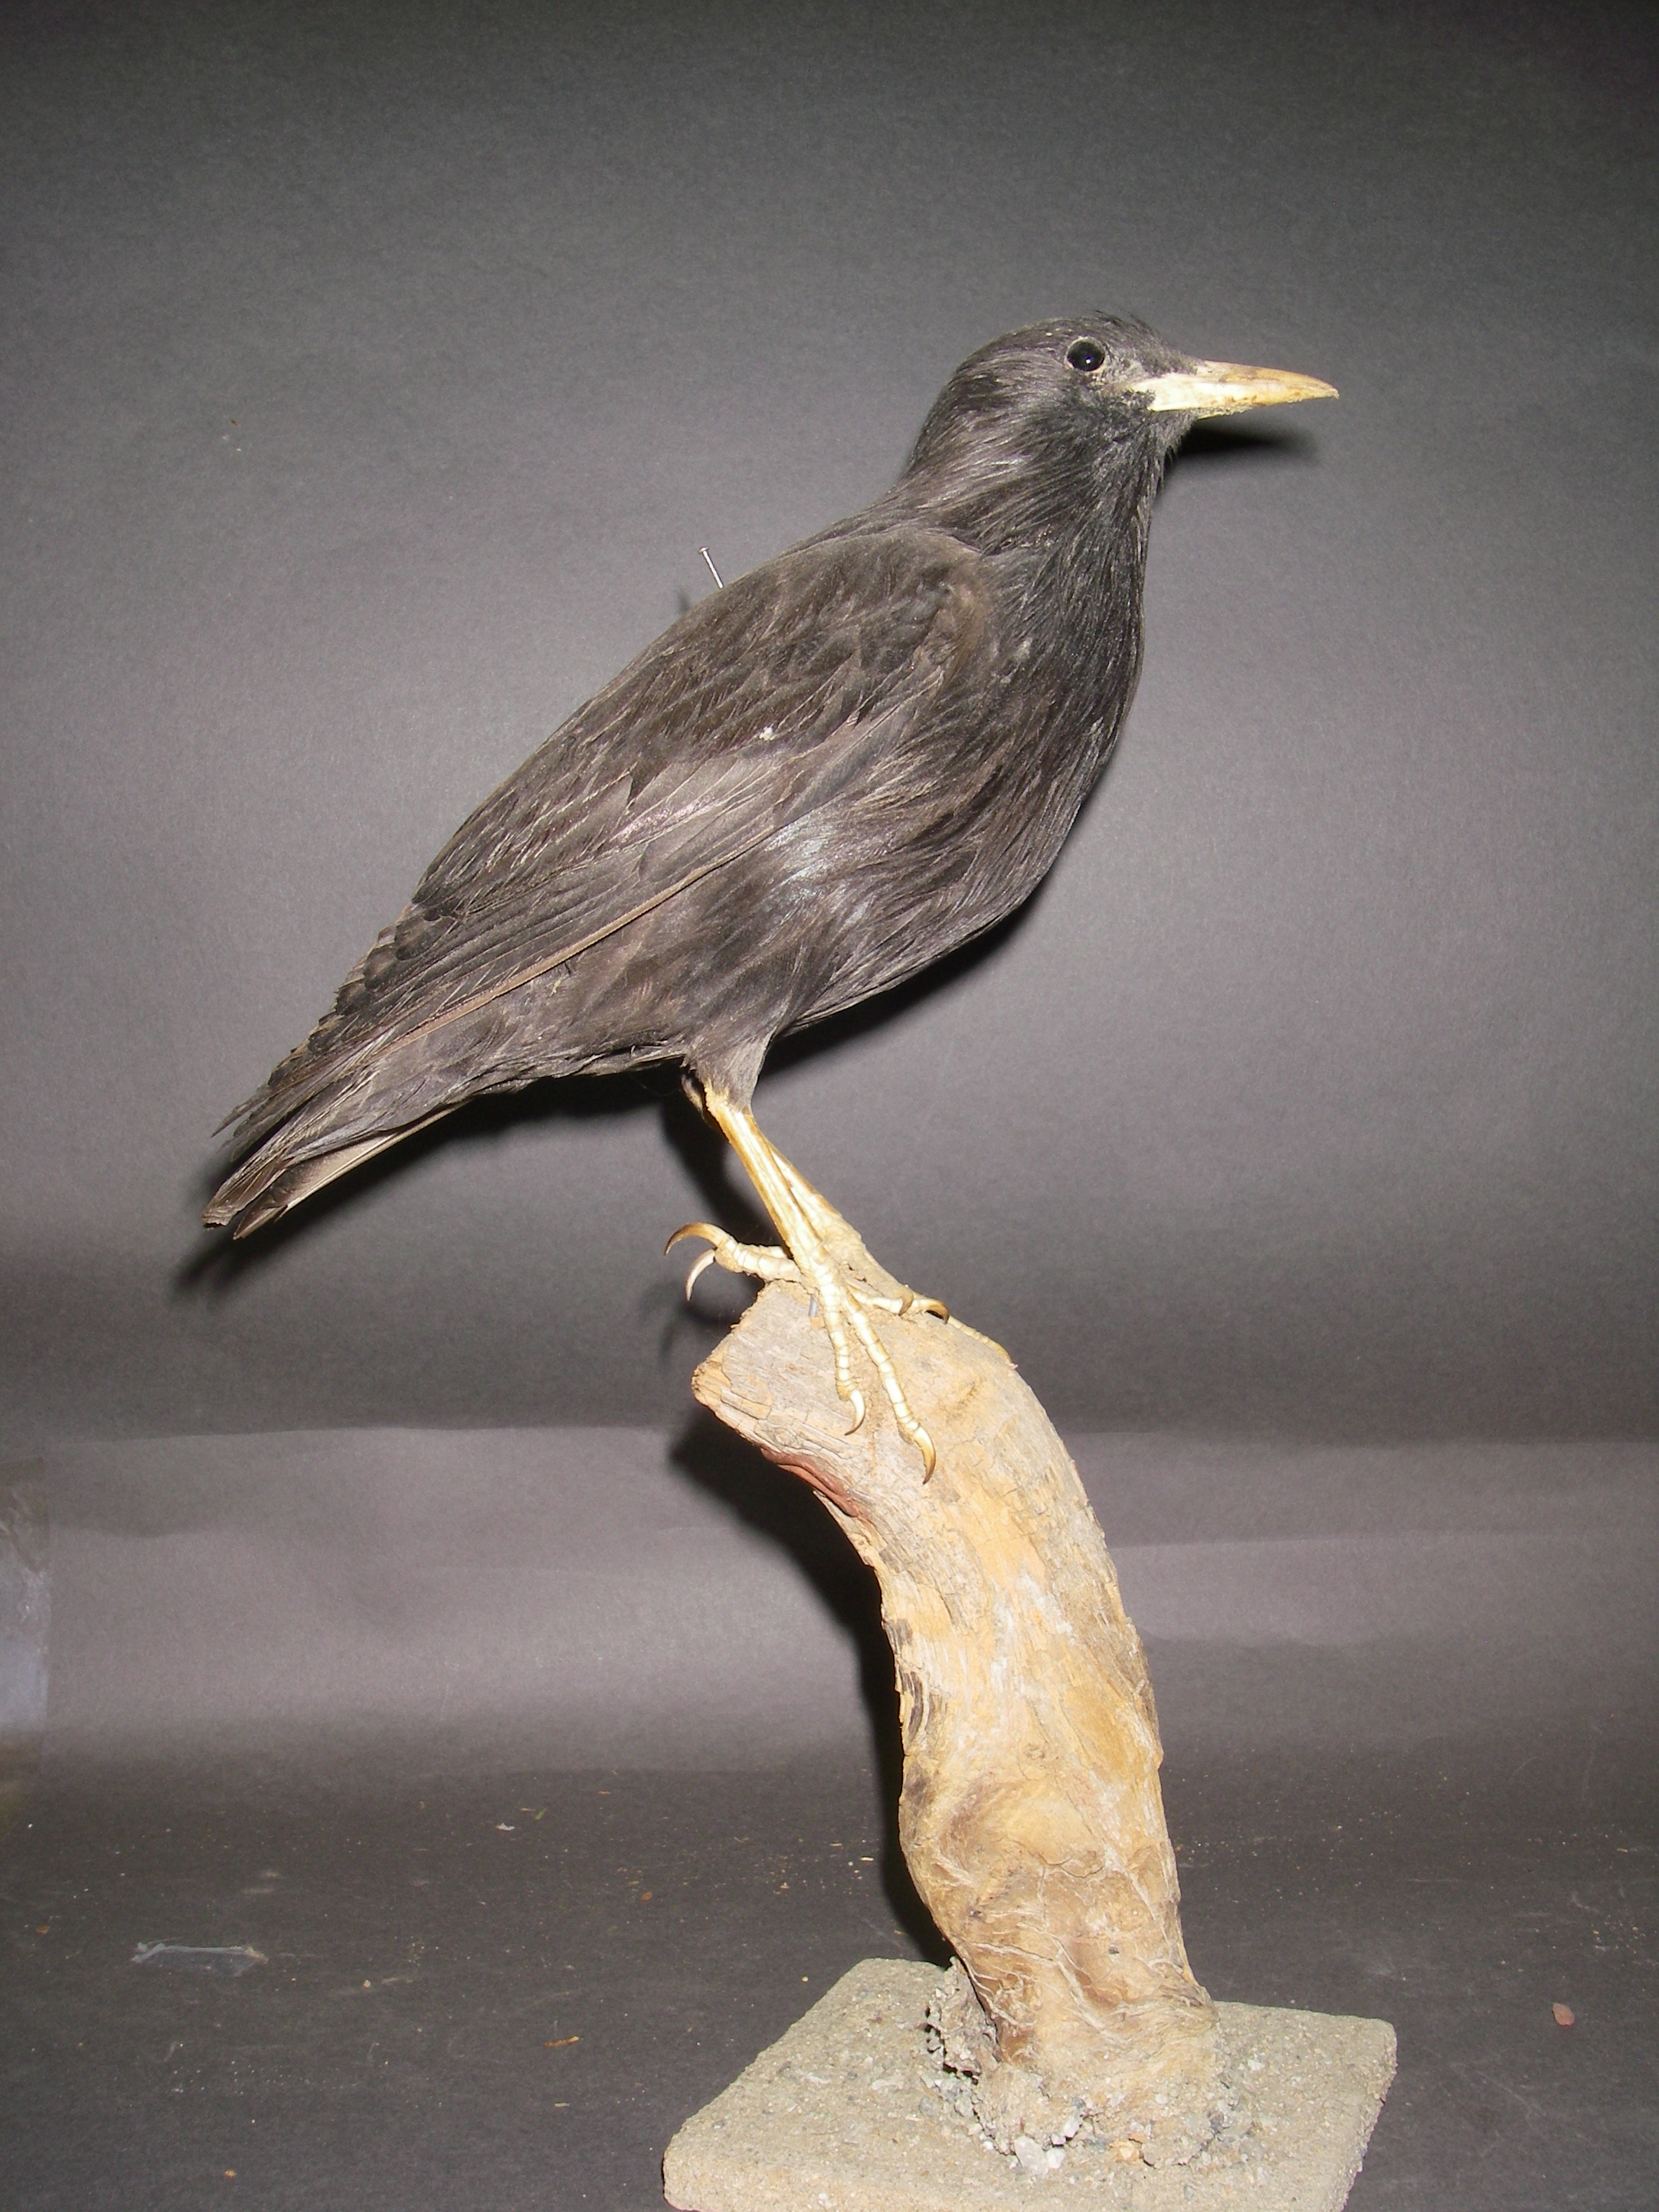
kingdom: Animalia
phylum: Chordata
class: Aves
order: Passeriformes
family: Sturnidae
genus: Sturnus
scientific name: Sturnus unicolor
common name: Spotless starling
